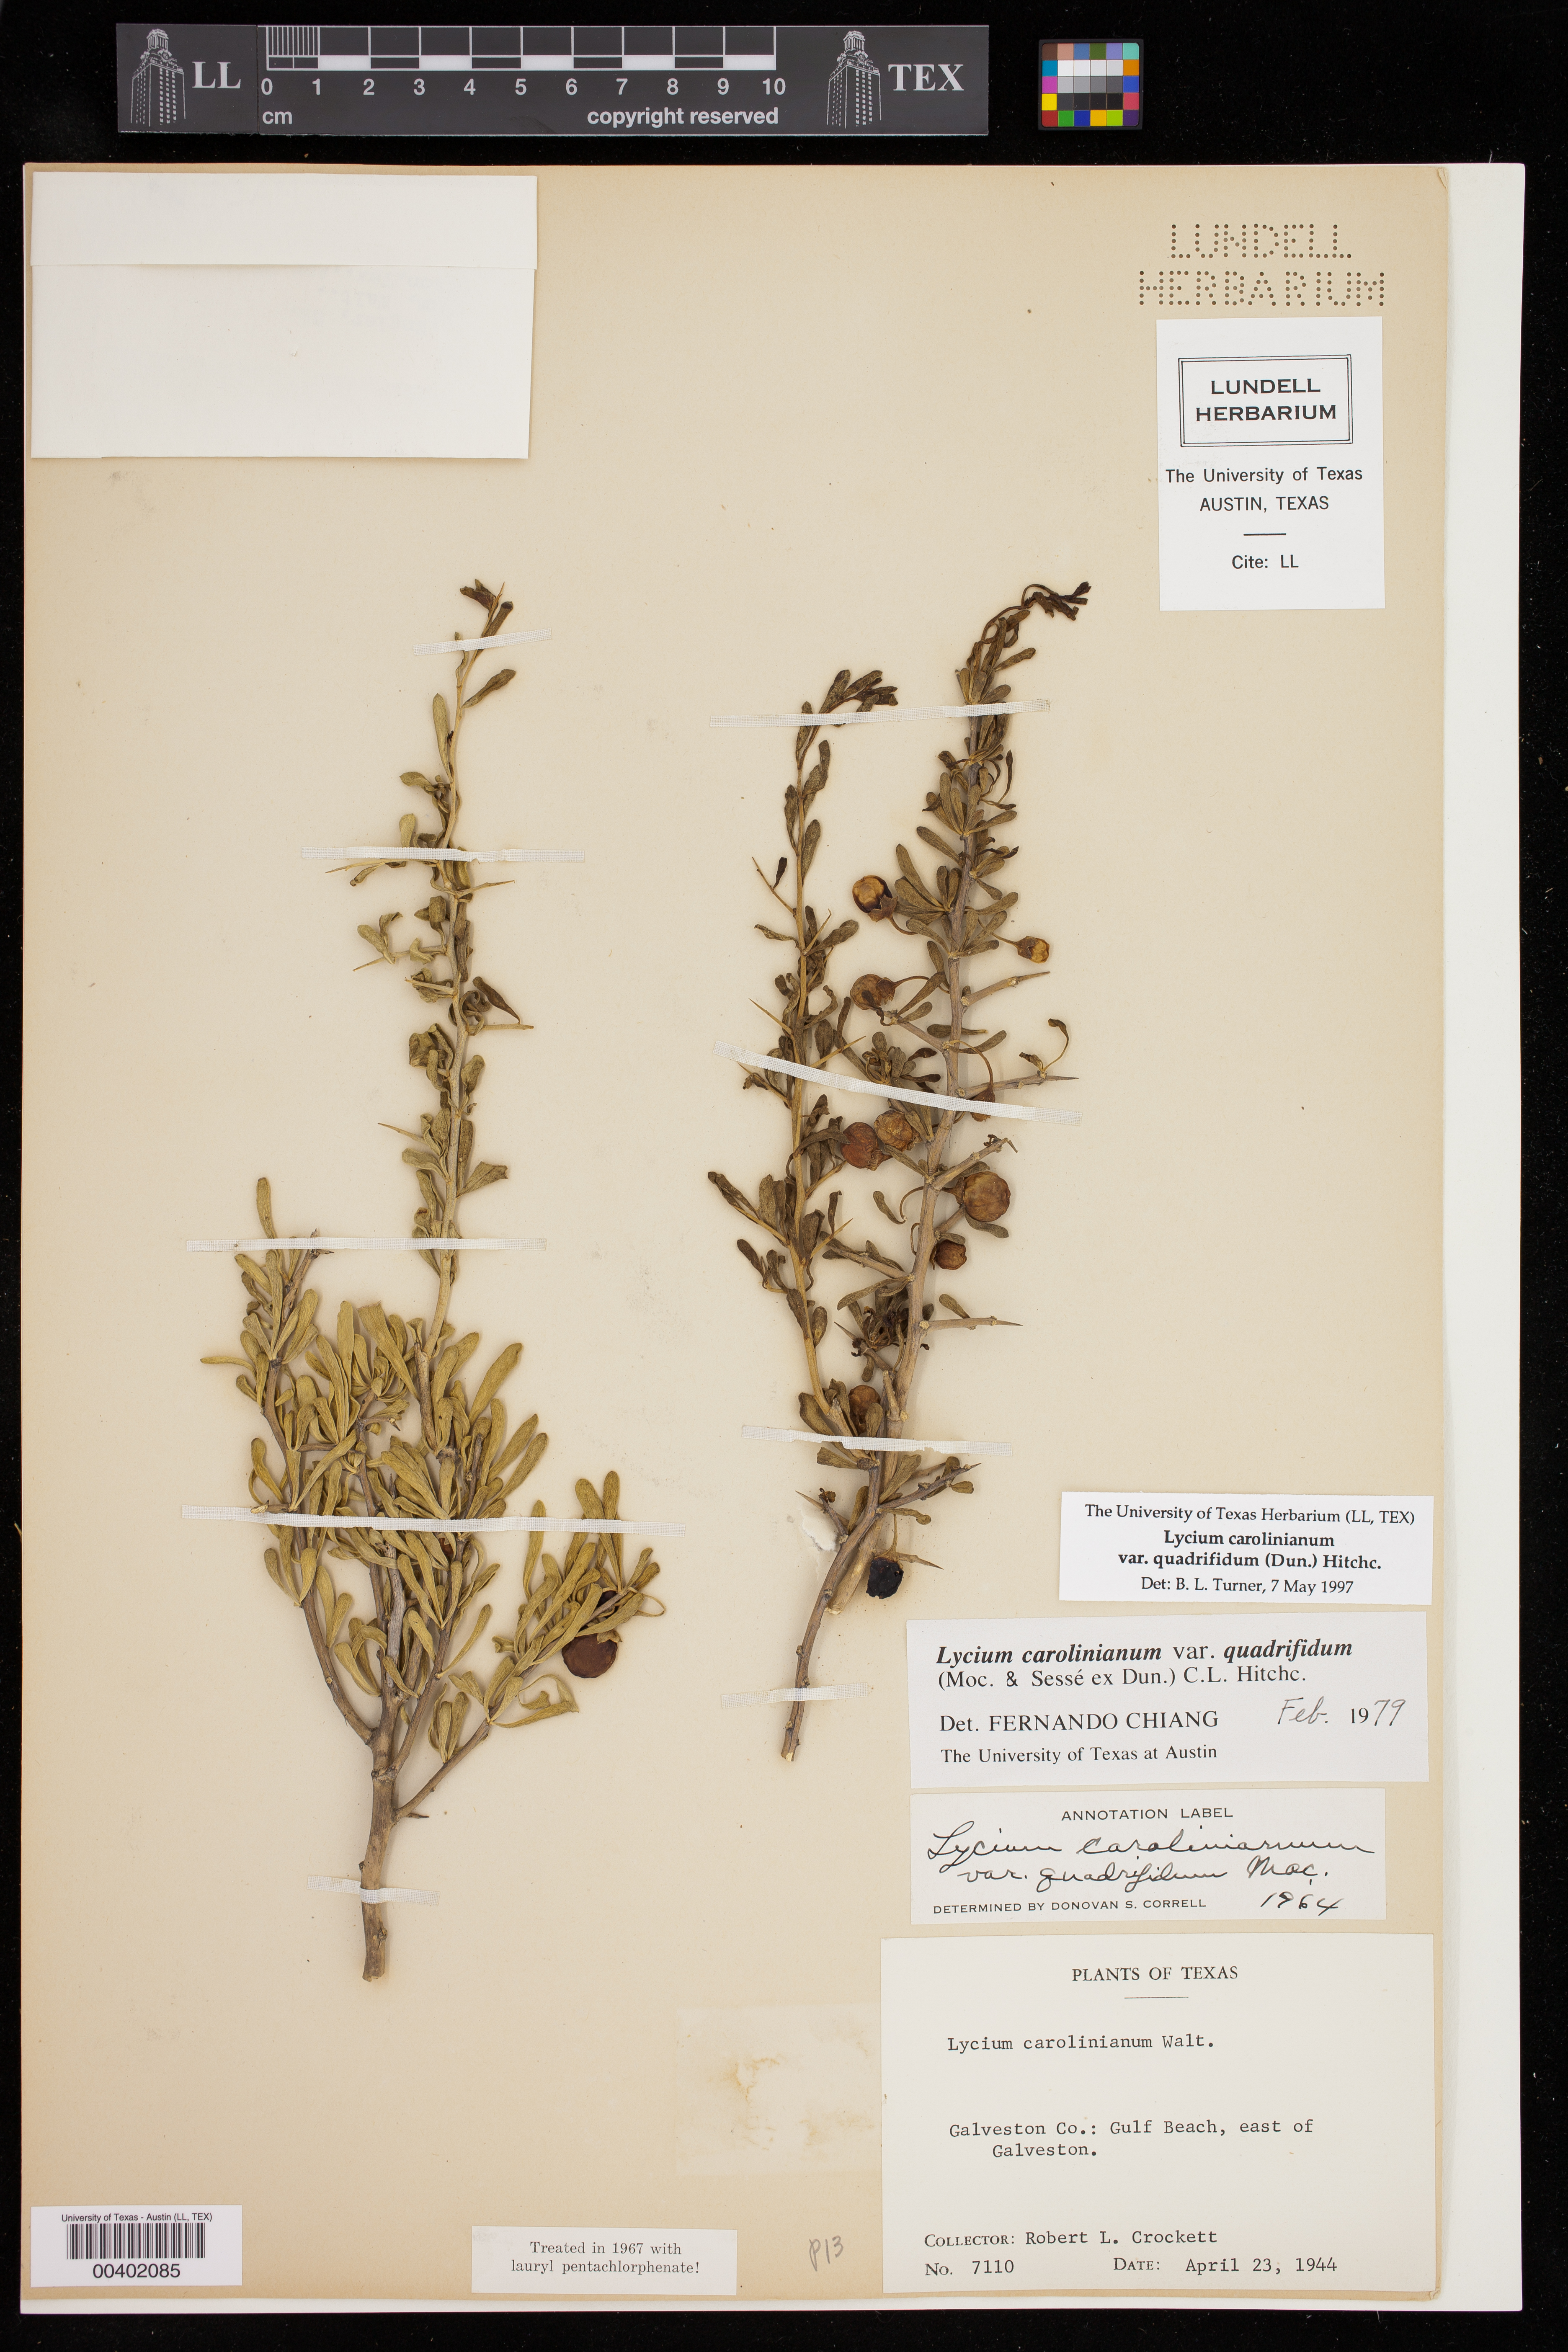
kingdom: Plantae
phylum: Tracheophyta
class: Magnoliopsida
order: Solanales
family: Solanaceae
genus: Lycium
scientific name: Lycium carolinianum
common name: Christmasberry
